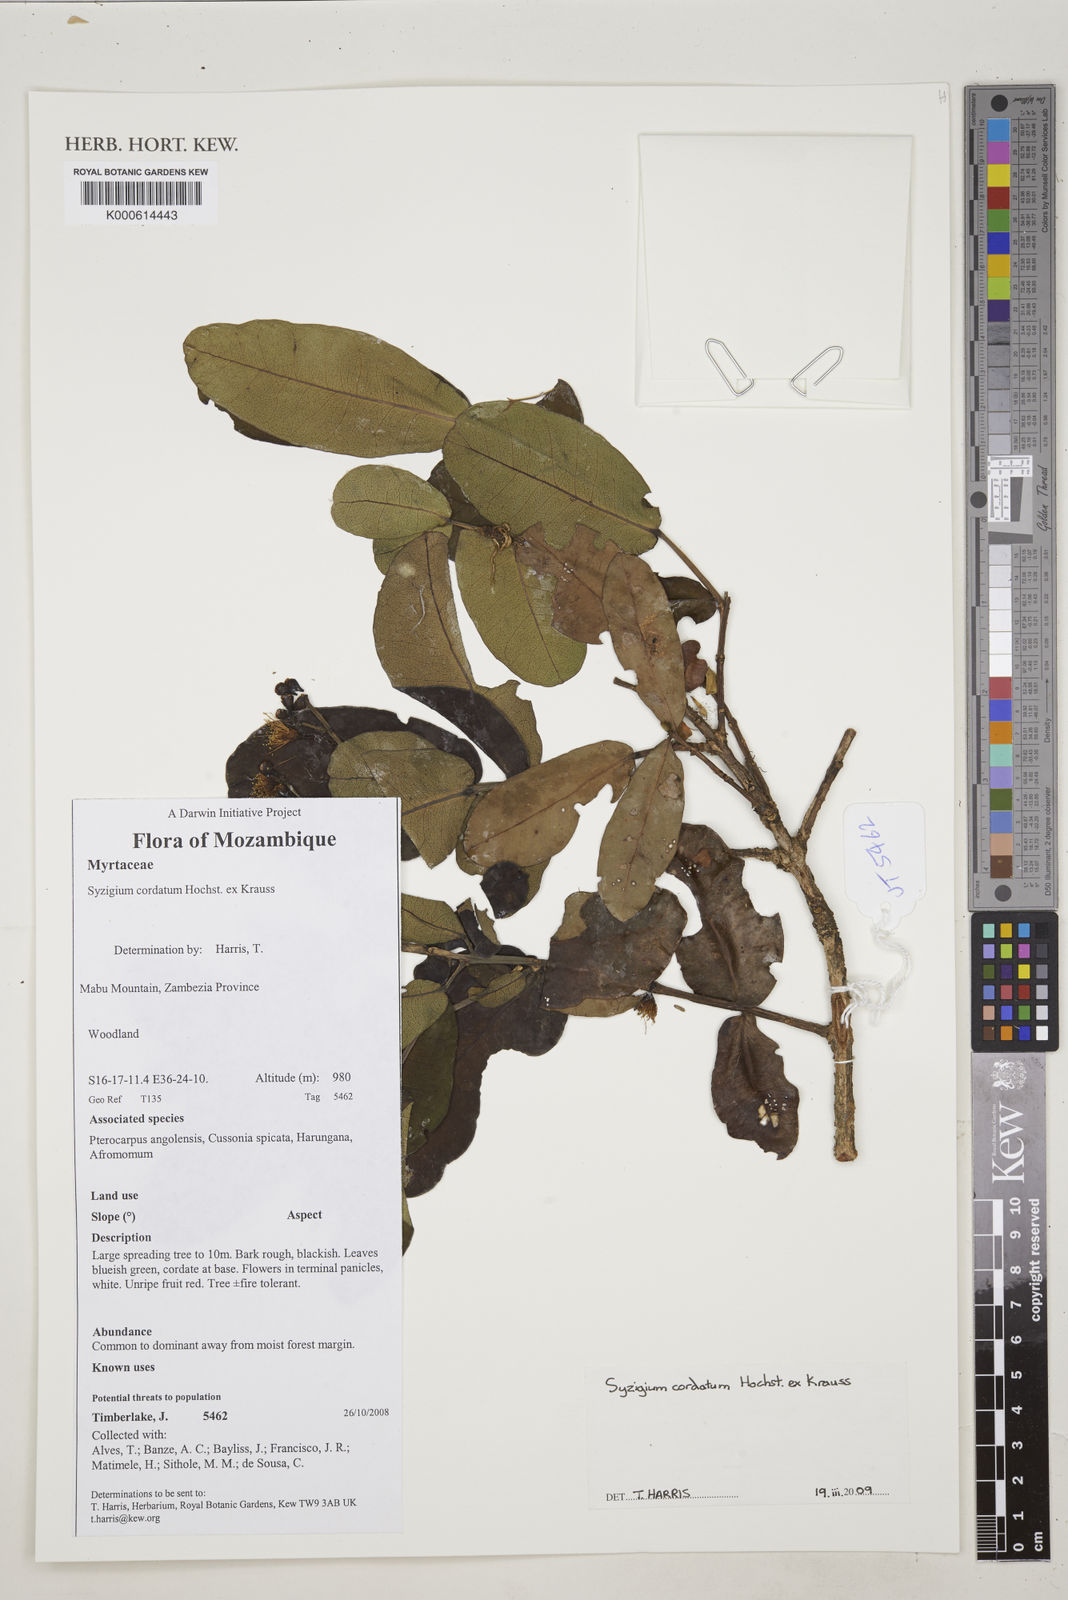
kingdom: Plantae
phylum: Tracheophyta
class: Magnoliopsida
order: Myrtales
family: Myrtaceae
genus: Syzygium
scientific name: Syzygium cordatum
